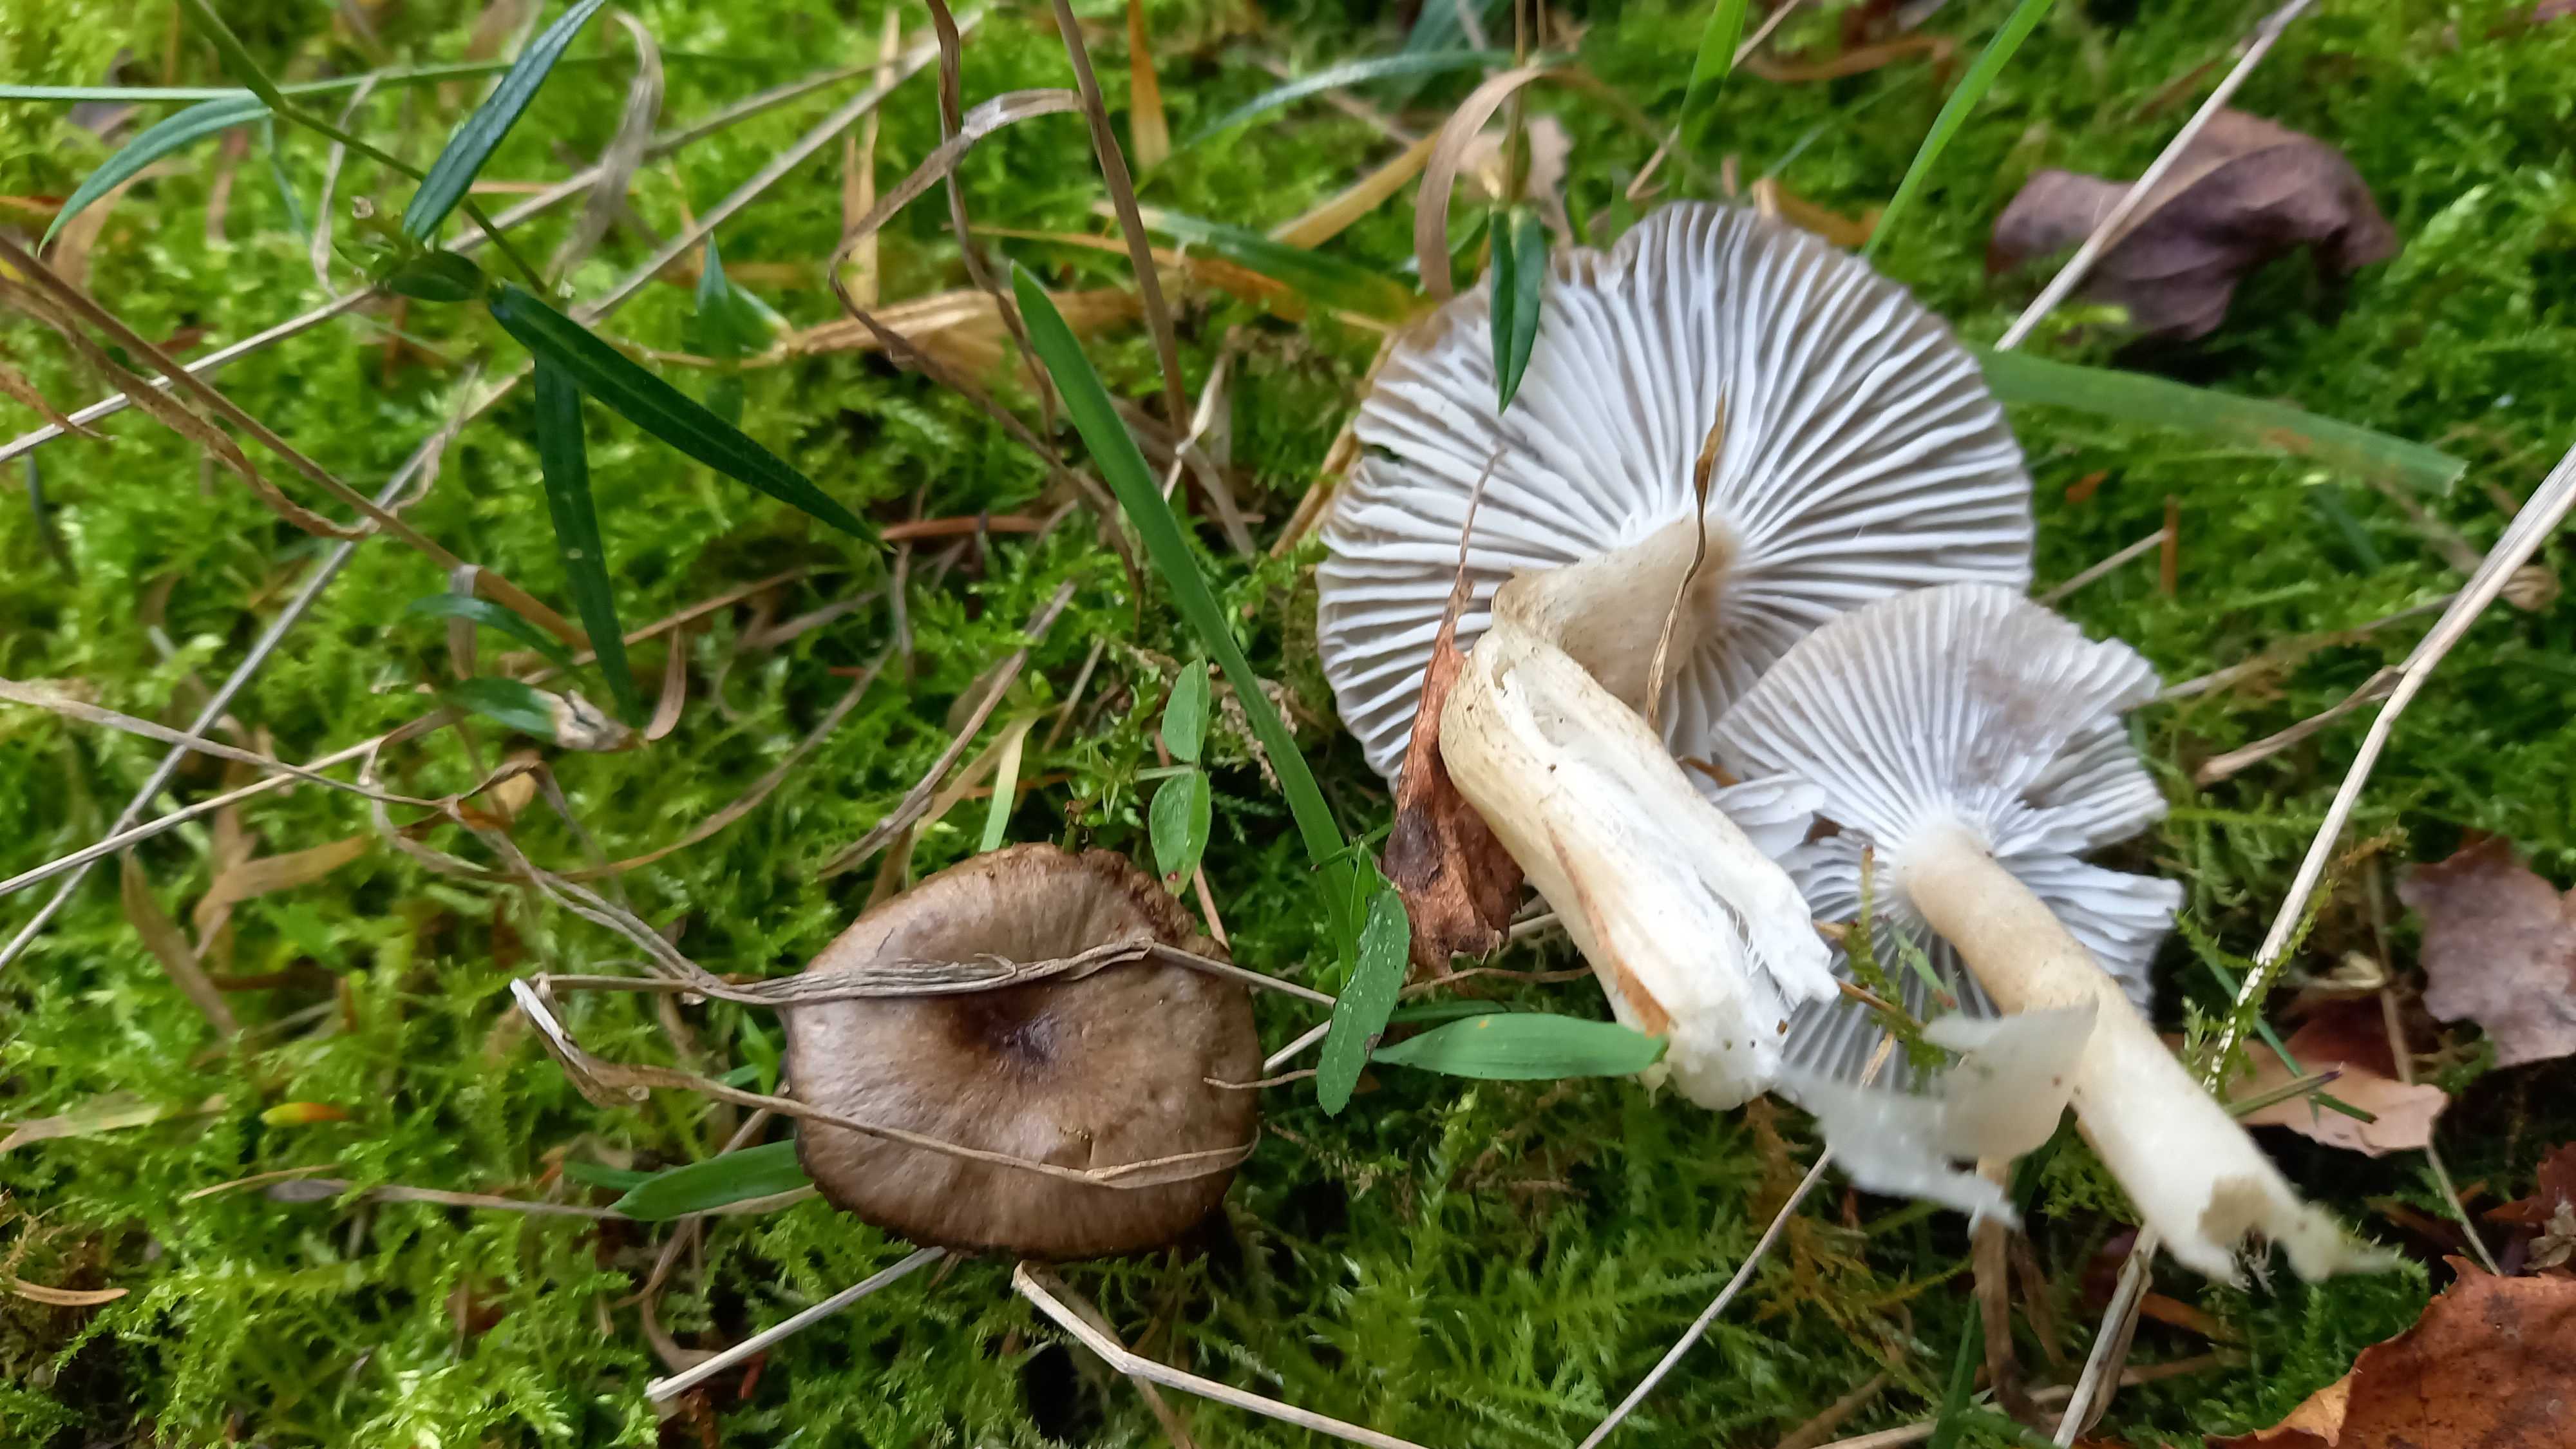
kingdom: Fungi
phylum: Basidiomycota
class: Agaricomycetes
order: Agaricales
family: Hygrophoraceae
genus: Hygrophorus
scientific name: Hygrophorus pustulatus
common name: mørkprikket sneglehat
